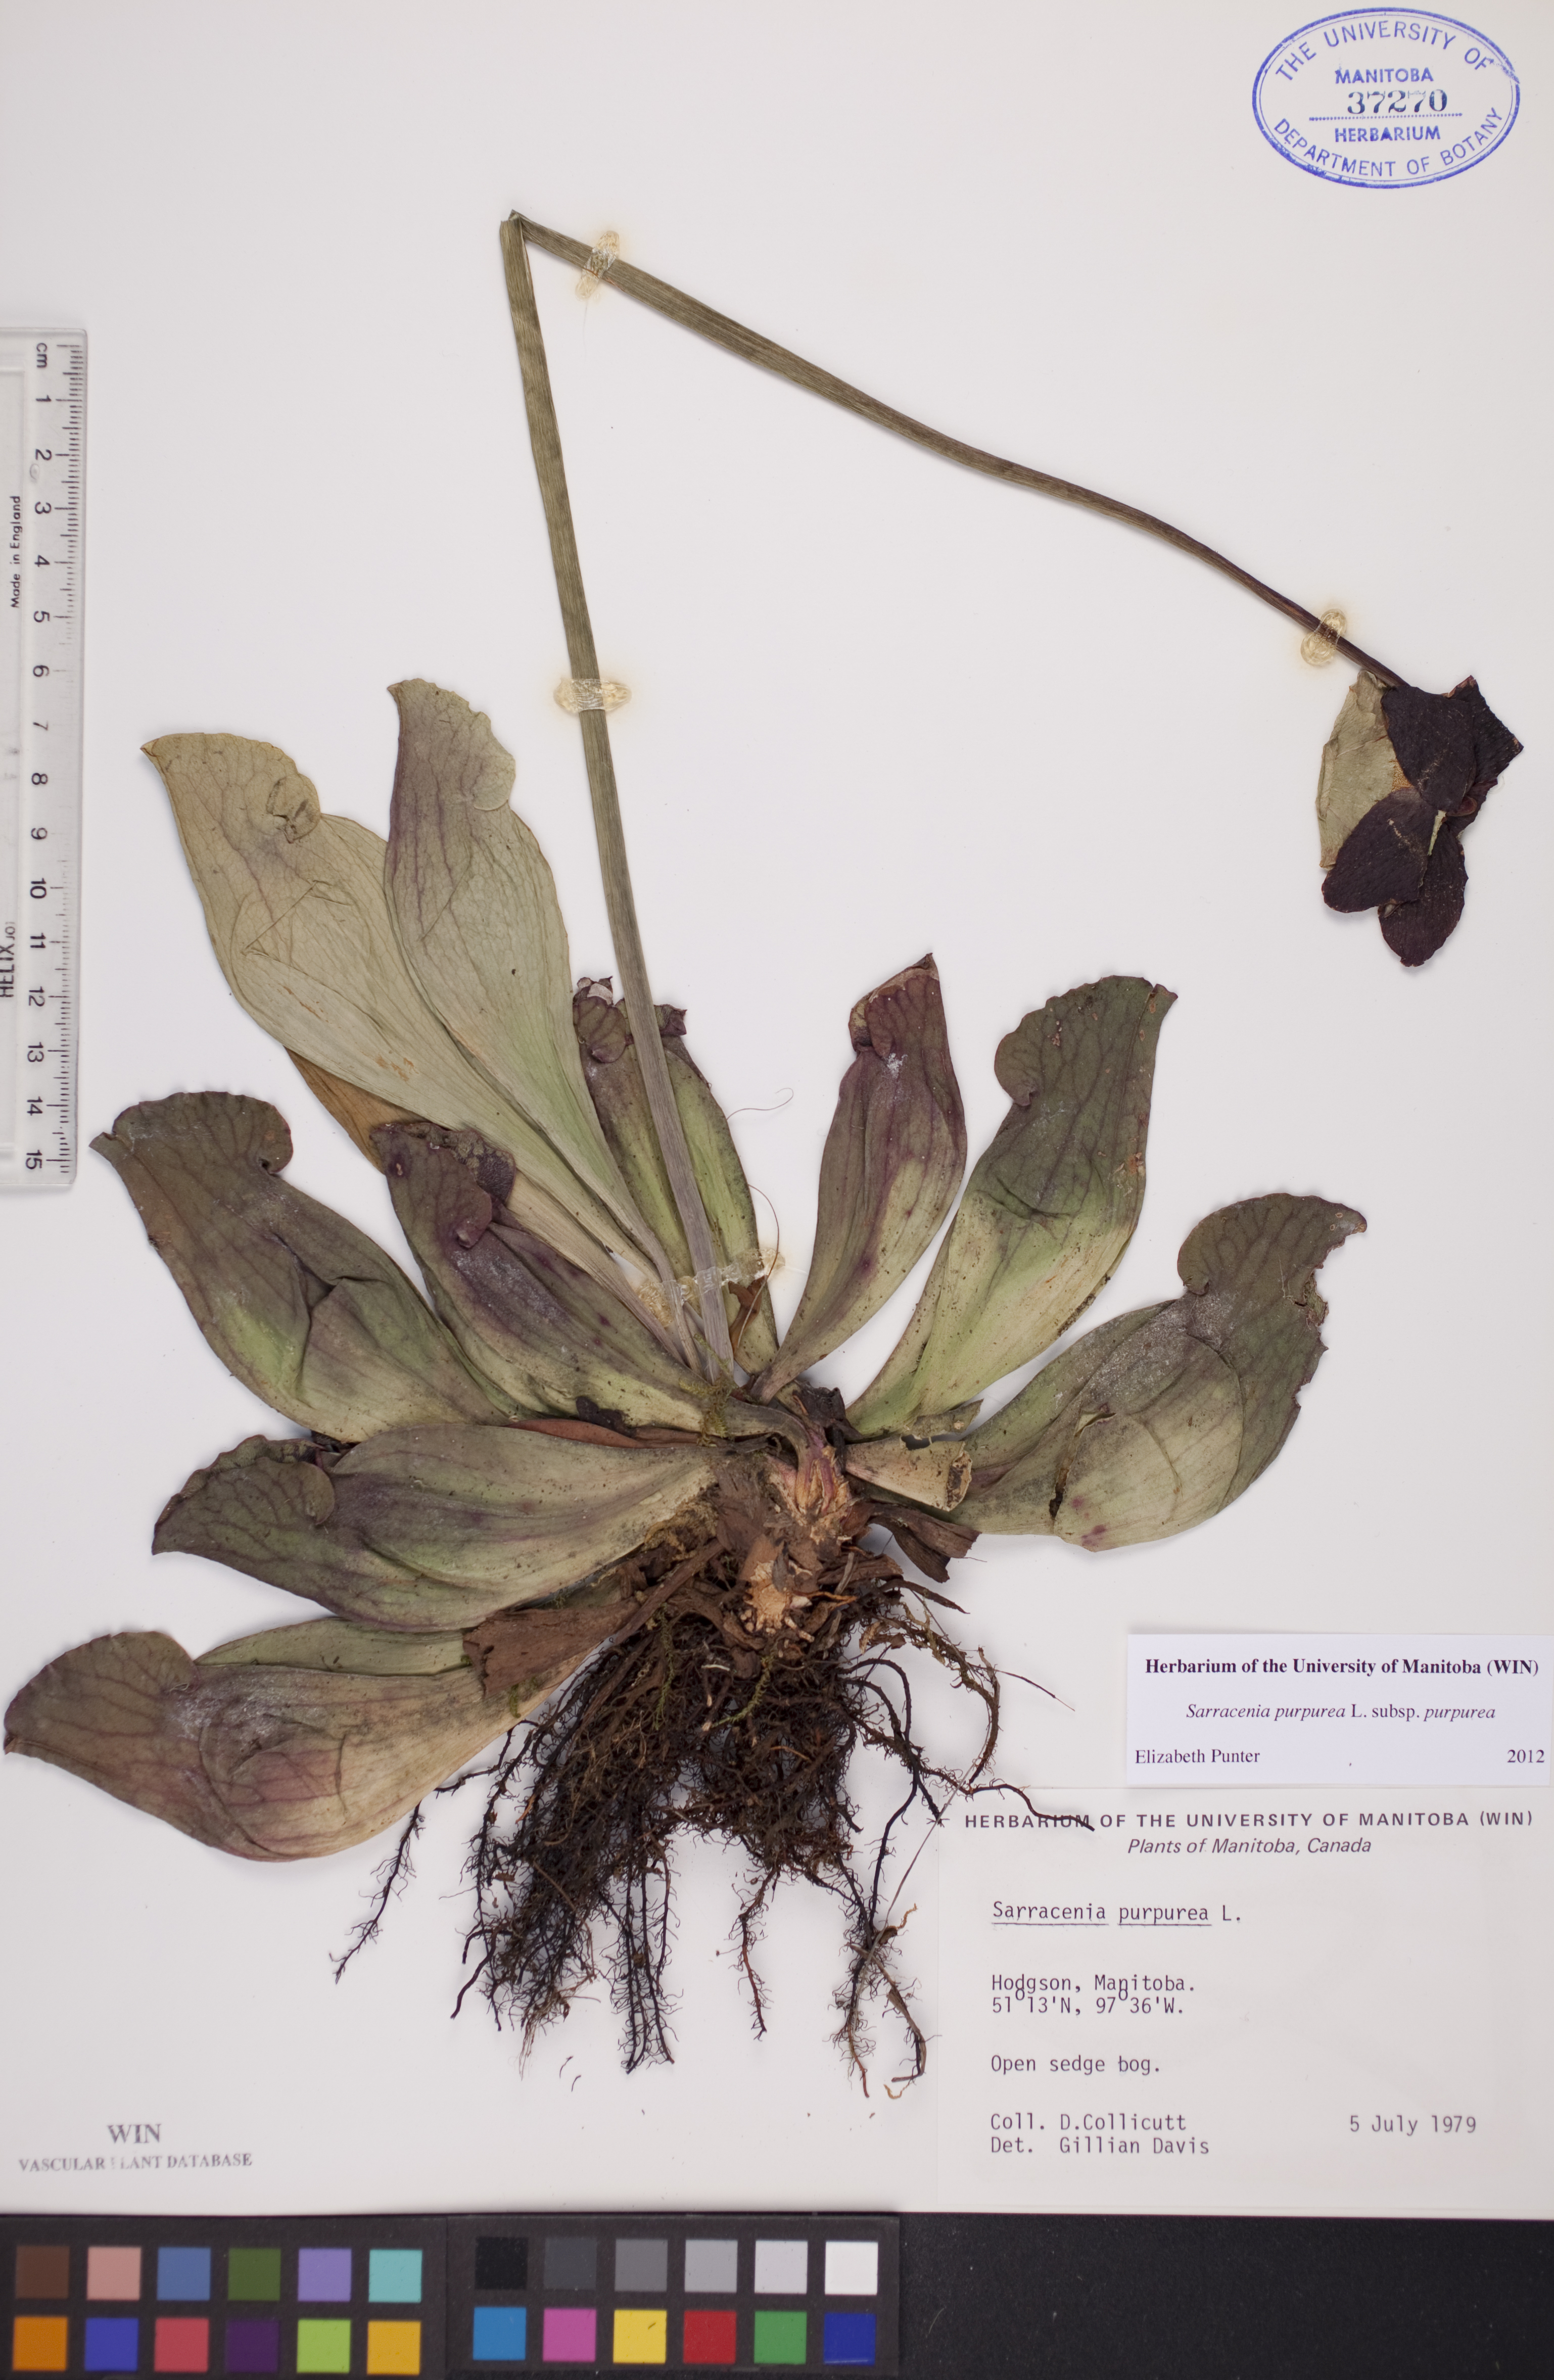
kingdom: Plantae
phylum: Tracheophyta
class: Magnoliopsida
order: Ericales
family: Sarraceniaceae
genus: Sarracenia
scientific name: Sarracenia purpurea
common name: Pitcherplant
